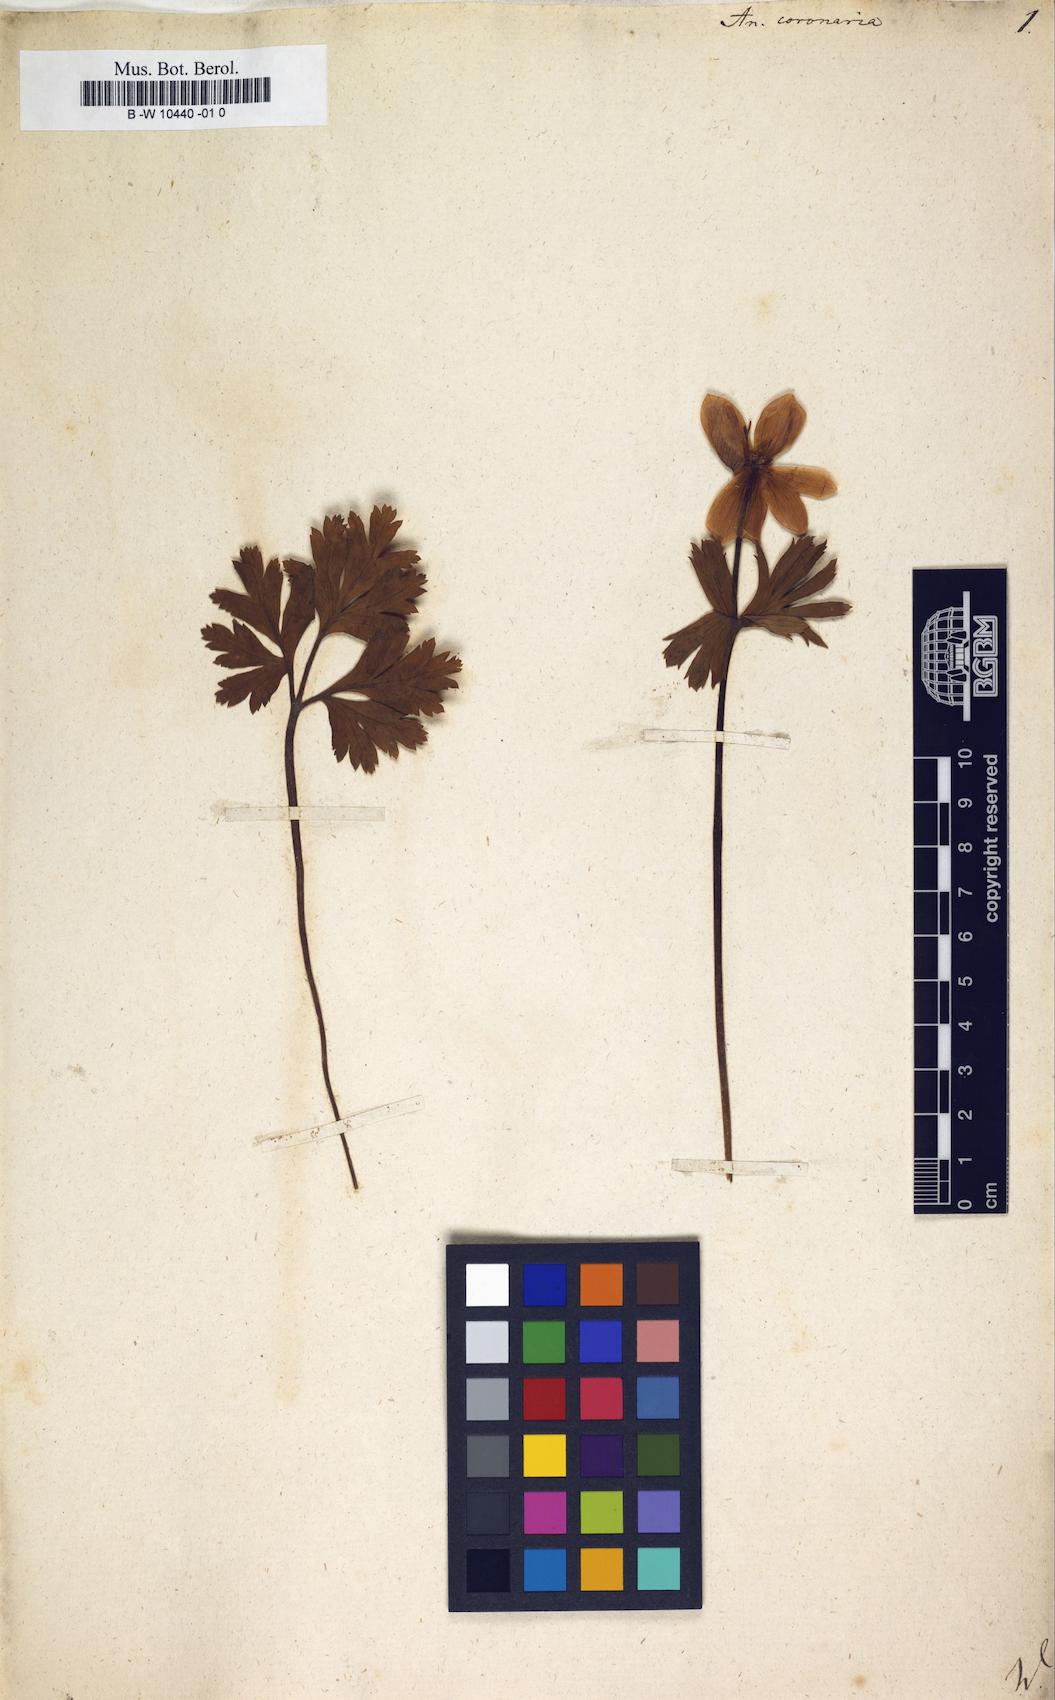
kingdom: Plantae
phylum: Tracheophyta
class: Magnoliopsida
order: Ranunculales
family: Ranunculaceae
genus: Anemone
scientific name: Anemone coronaria
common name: Poppy anemone
